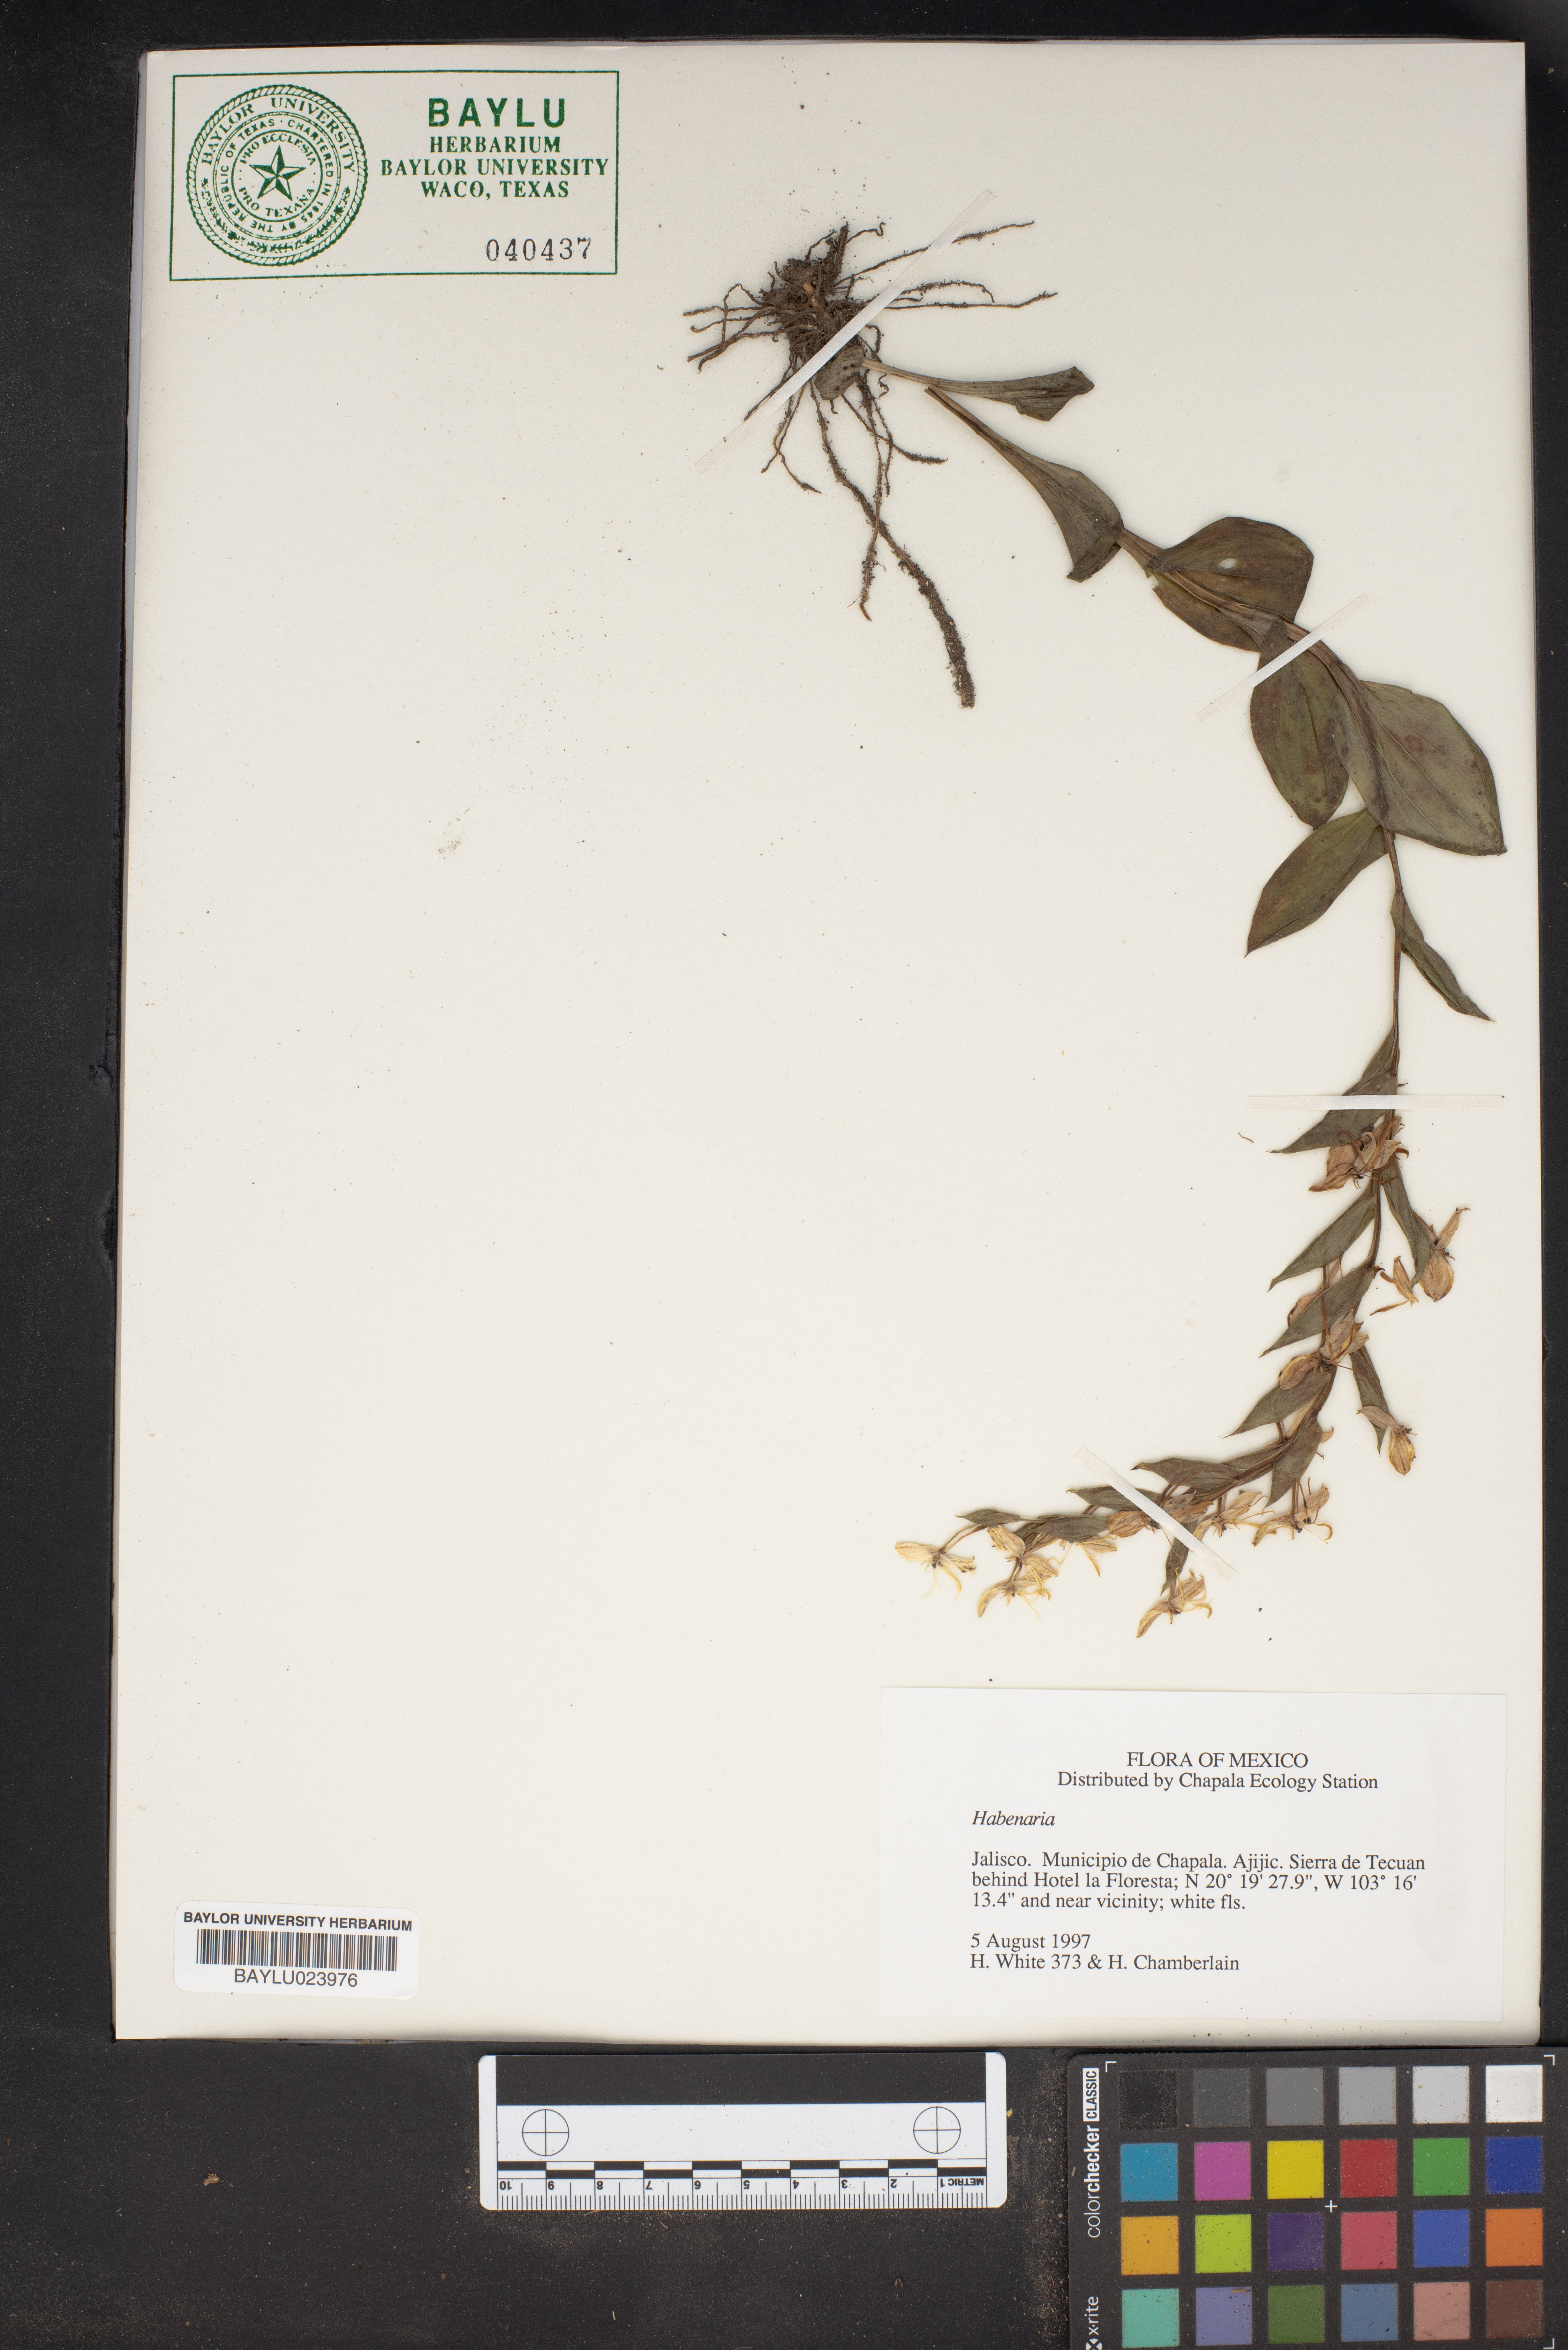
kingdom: Plantae
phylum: Tracheophyta
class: Liliopsida
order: Asparagales
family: Orchidaceae
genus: Habenaria
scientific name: Habenaria
